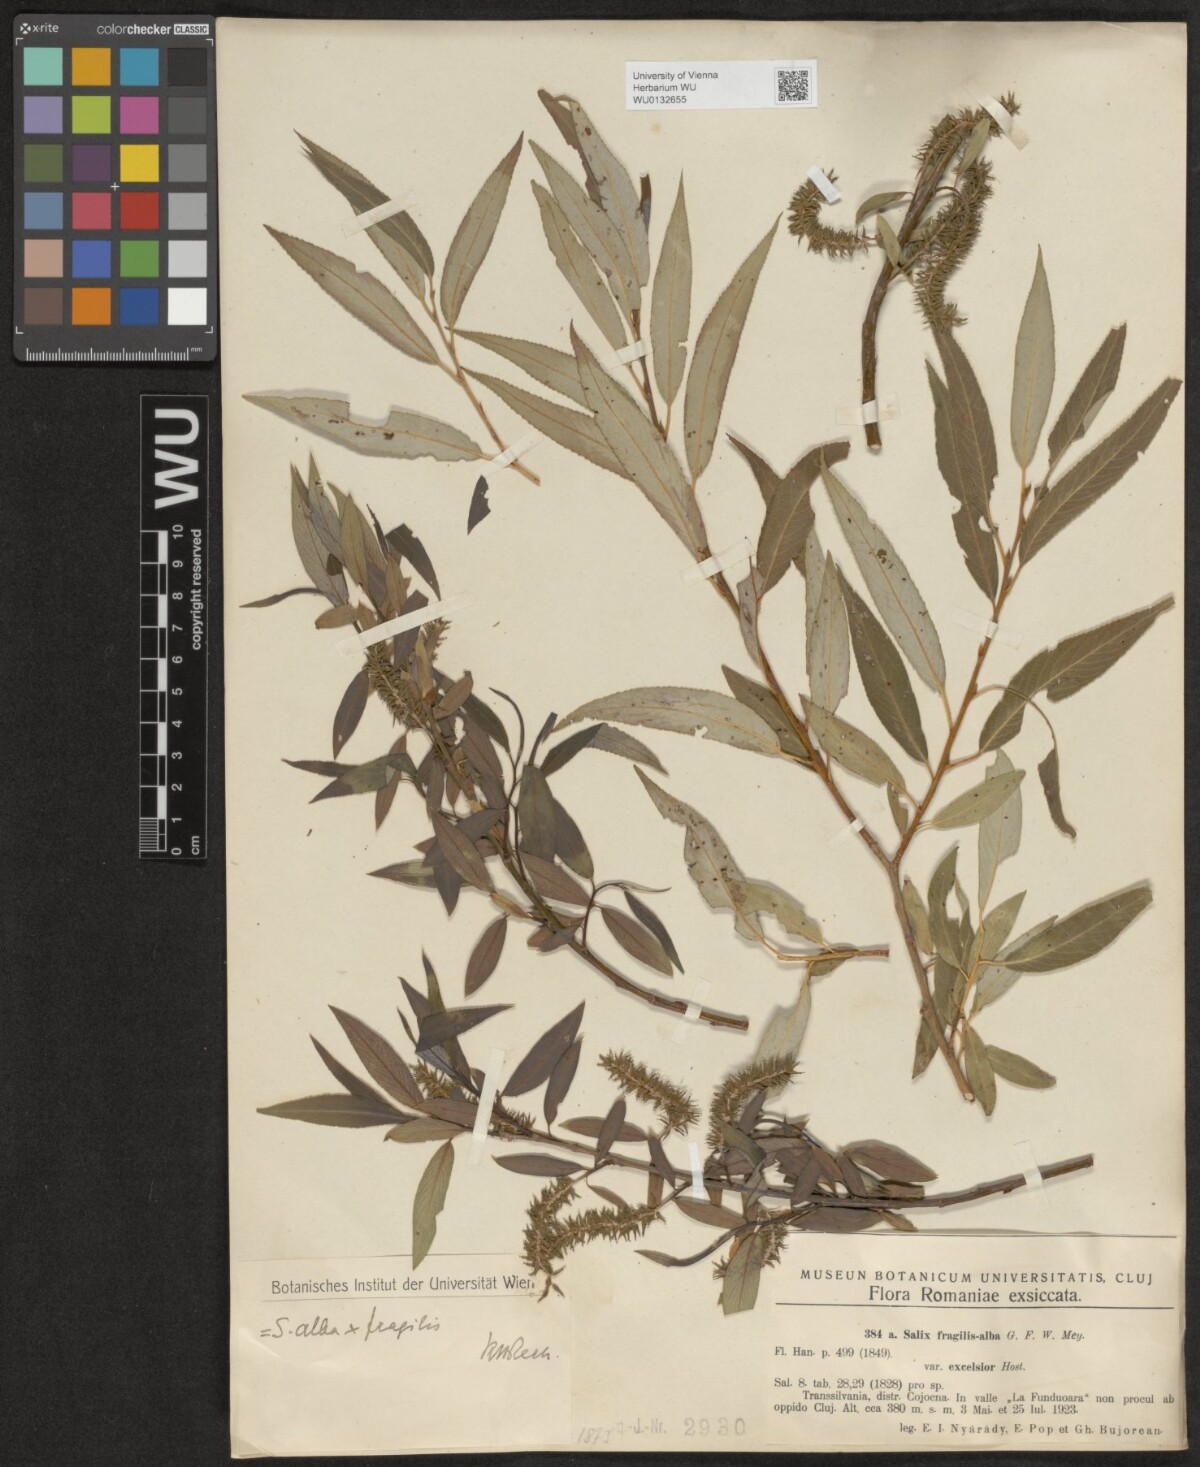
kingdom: Plantae
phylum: Tracheophyta
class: Magnoliopsida
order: Malpighiales
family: Salicaceae
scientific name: Salicaceae
